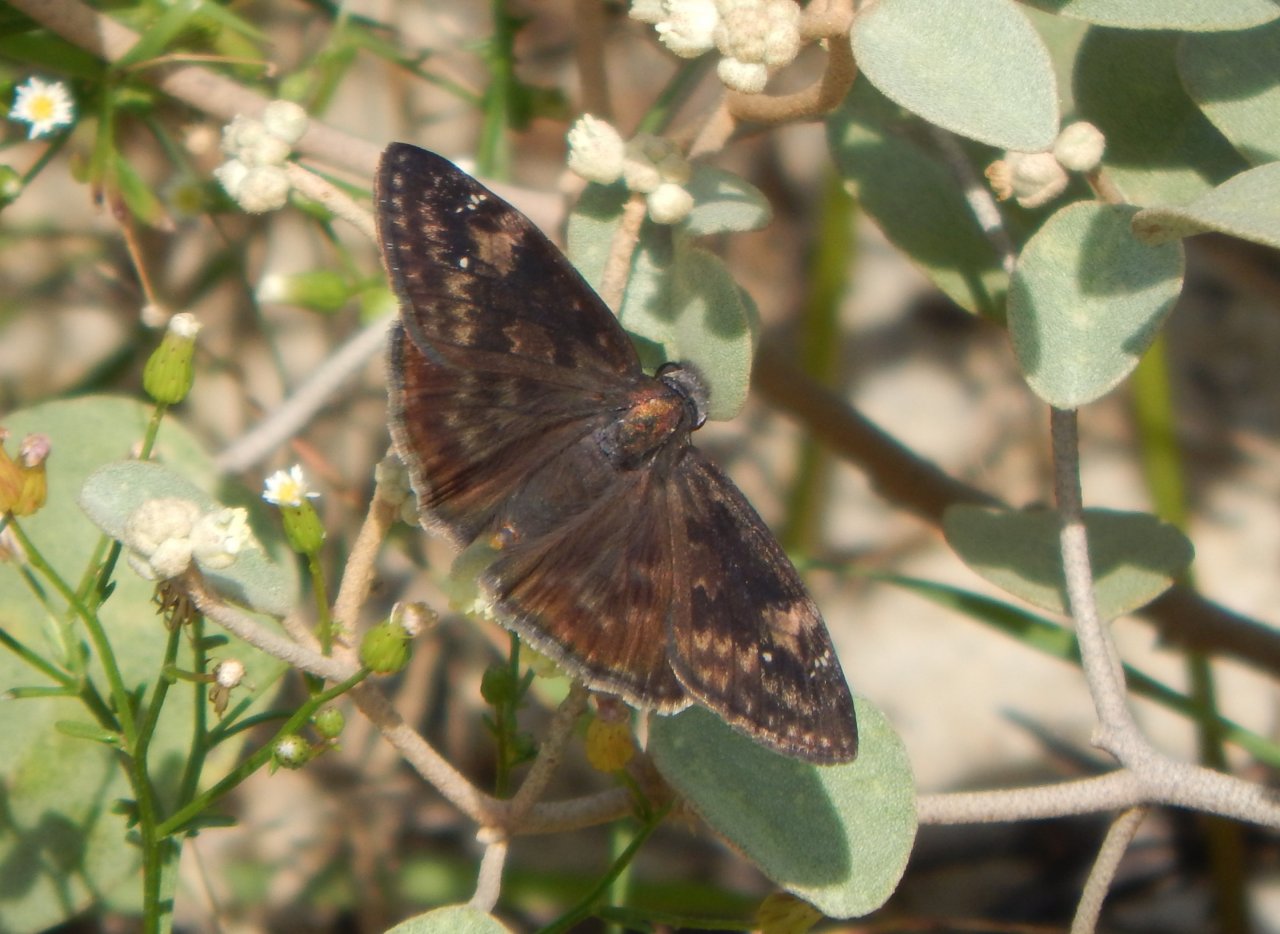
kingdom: Animalia
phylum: Arthropoda
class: Insecta
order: Lepidoptera
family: Hesperiidae
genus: Erynnis
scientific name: Erynnis zarucco
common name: Zarucco Duskywing
